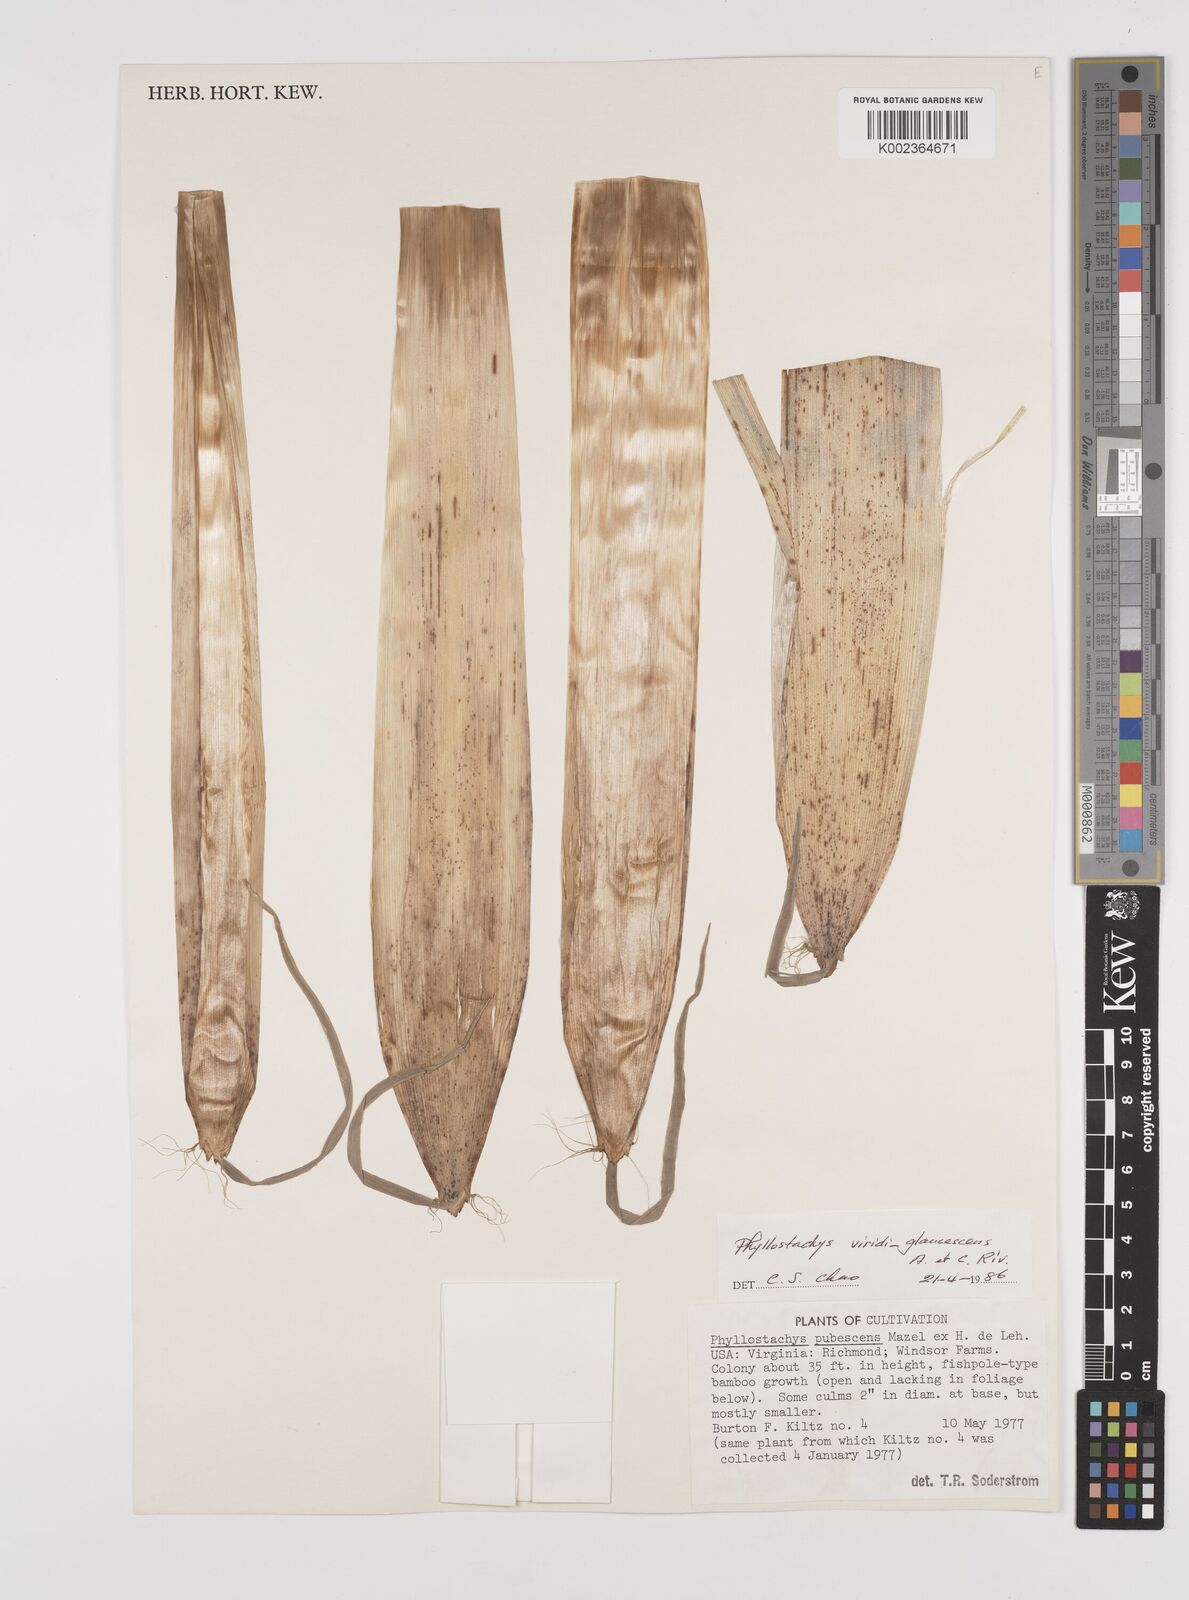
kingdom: Plantae
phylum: Tracheophyta
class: Liliopsida
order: Poales
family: Poaceae
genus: Phyllostachys
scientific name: Phyllostachys viridiglaucescens
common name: Greenwax golden bamboo
